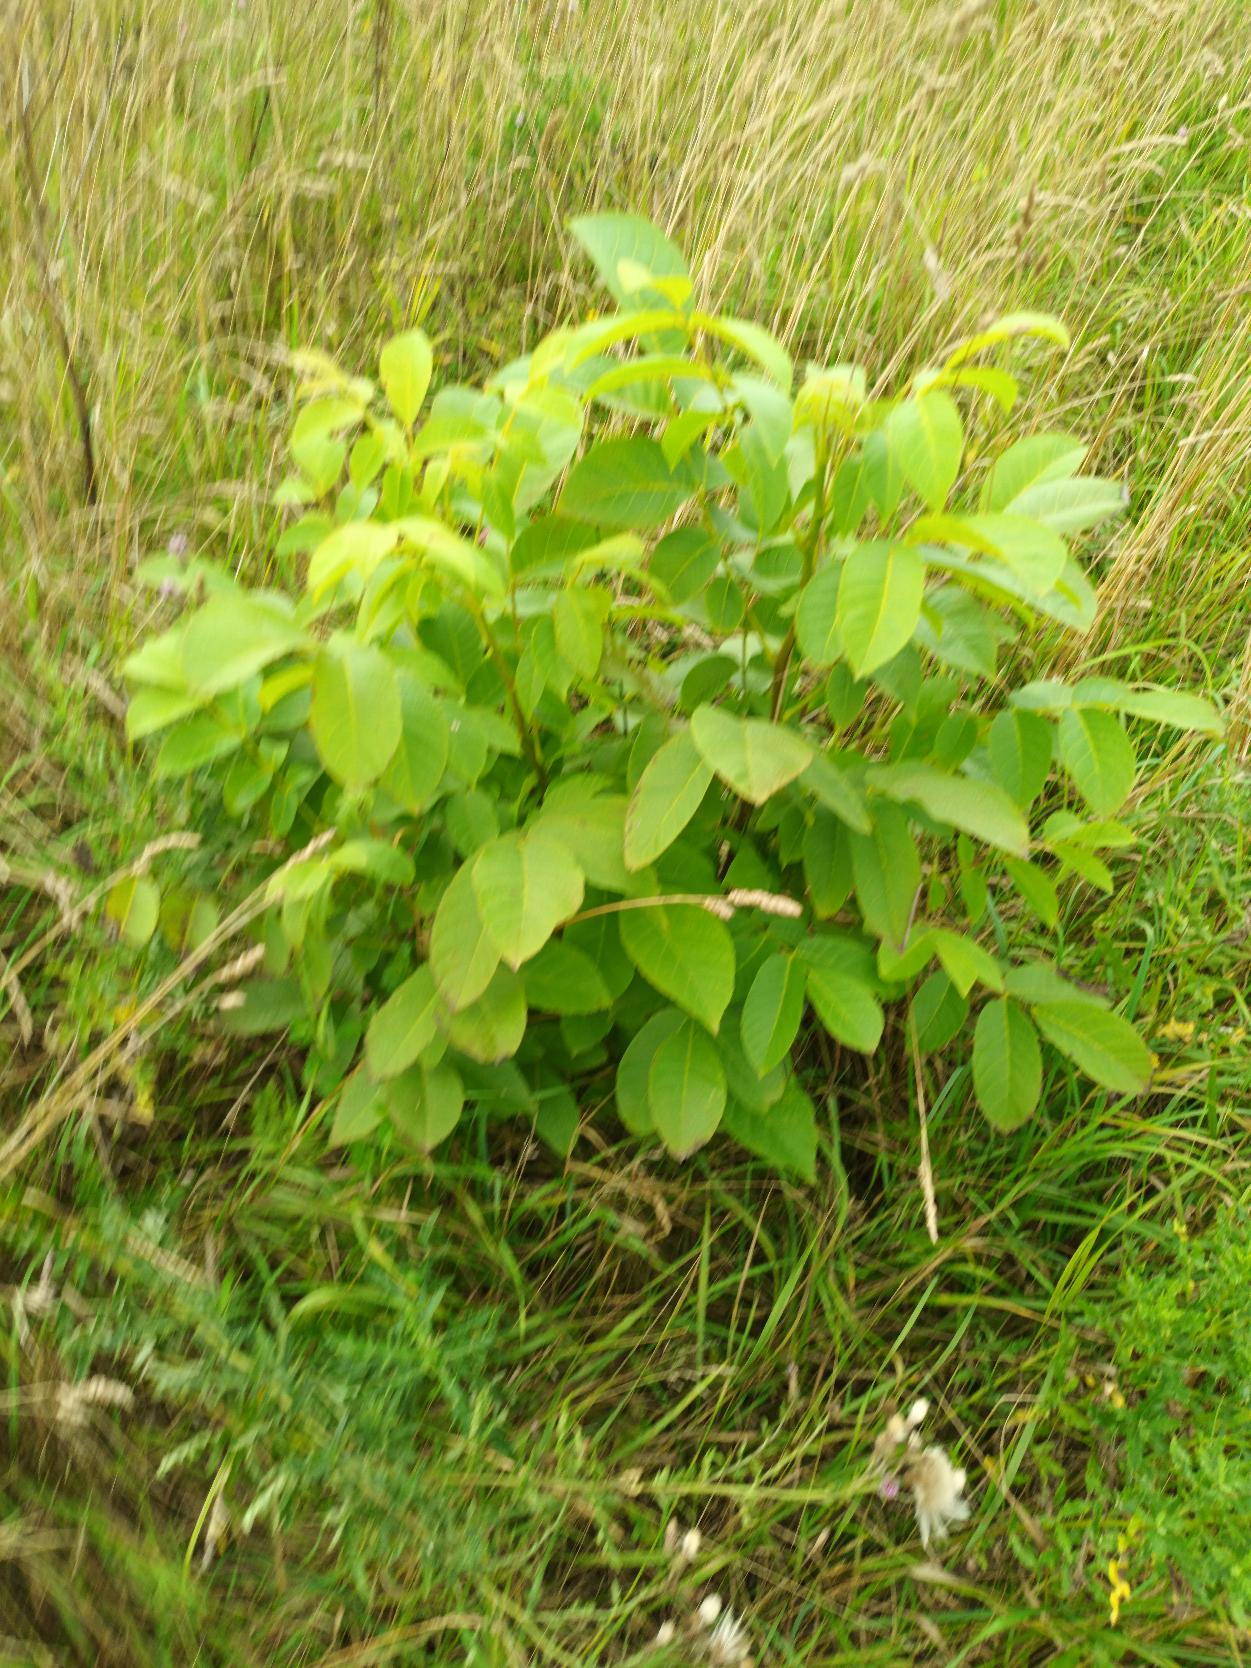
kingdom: Plantae
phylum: Tracheophyta
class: Magnoliopsida
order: Fagales
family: Juglandaceae
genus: Juglans
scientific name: Juglans regia
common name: Almindelig valnød
